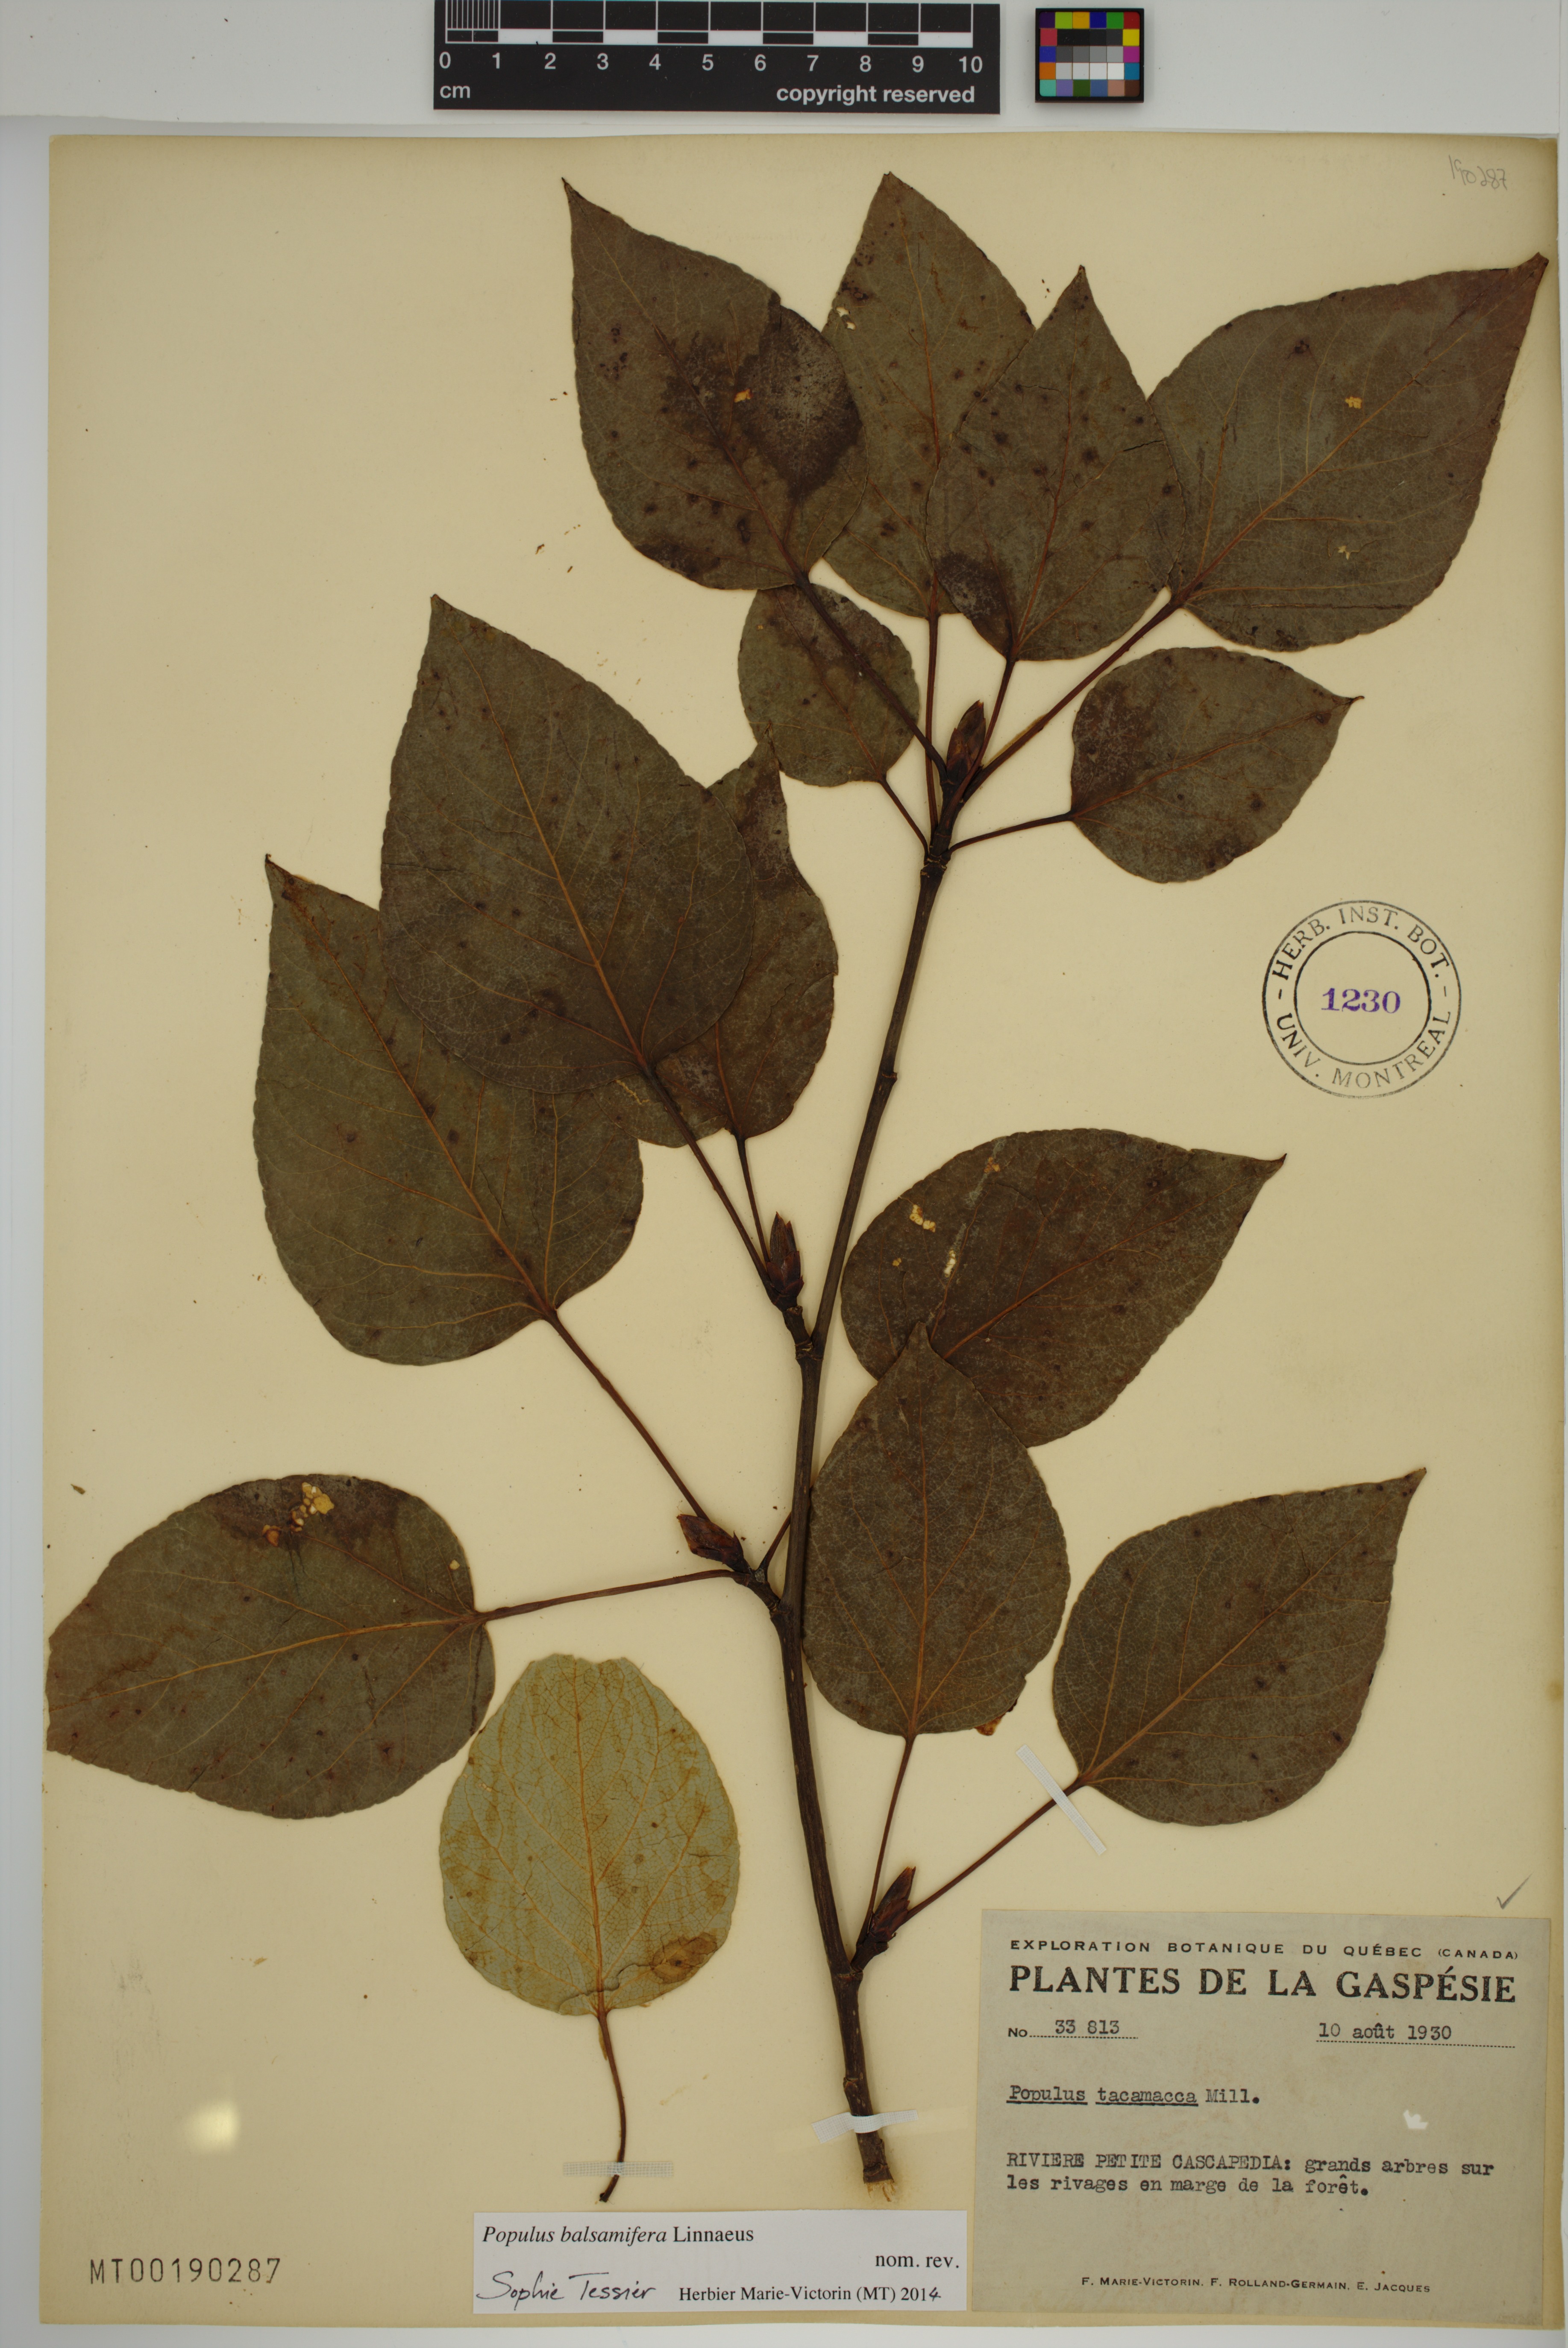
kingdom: Plantae
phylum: Tracheophyta
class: Magnoliopsida
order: Malpighiales
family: Salicaceae
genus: Populus
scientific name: Populus balsamifera
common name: Balsam poplar
